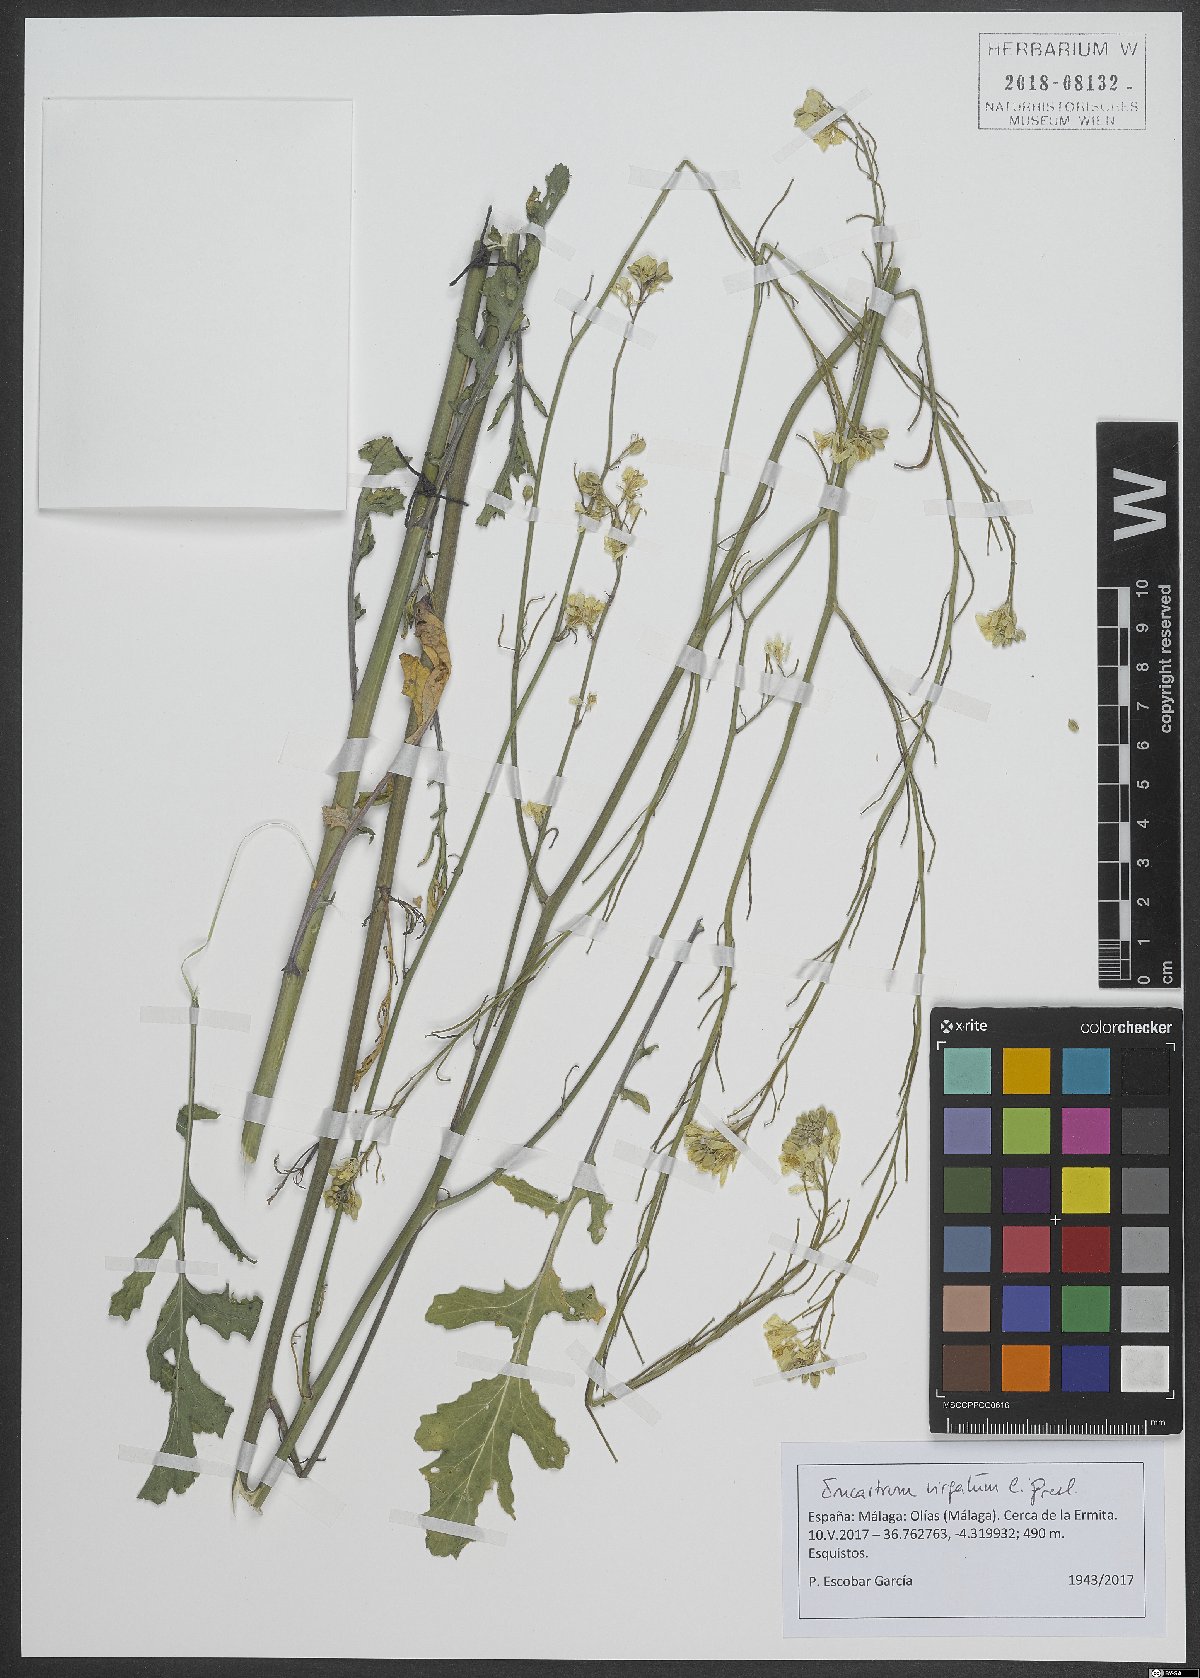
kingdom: Plantae
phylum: Tracheophyta
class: Magnoliopsida
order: Brassicales
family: Brassicaceae
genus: Erucastrum
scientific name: Erucastrum virgatum
